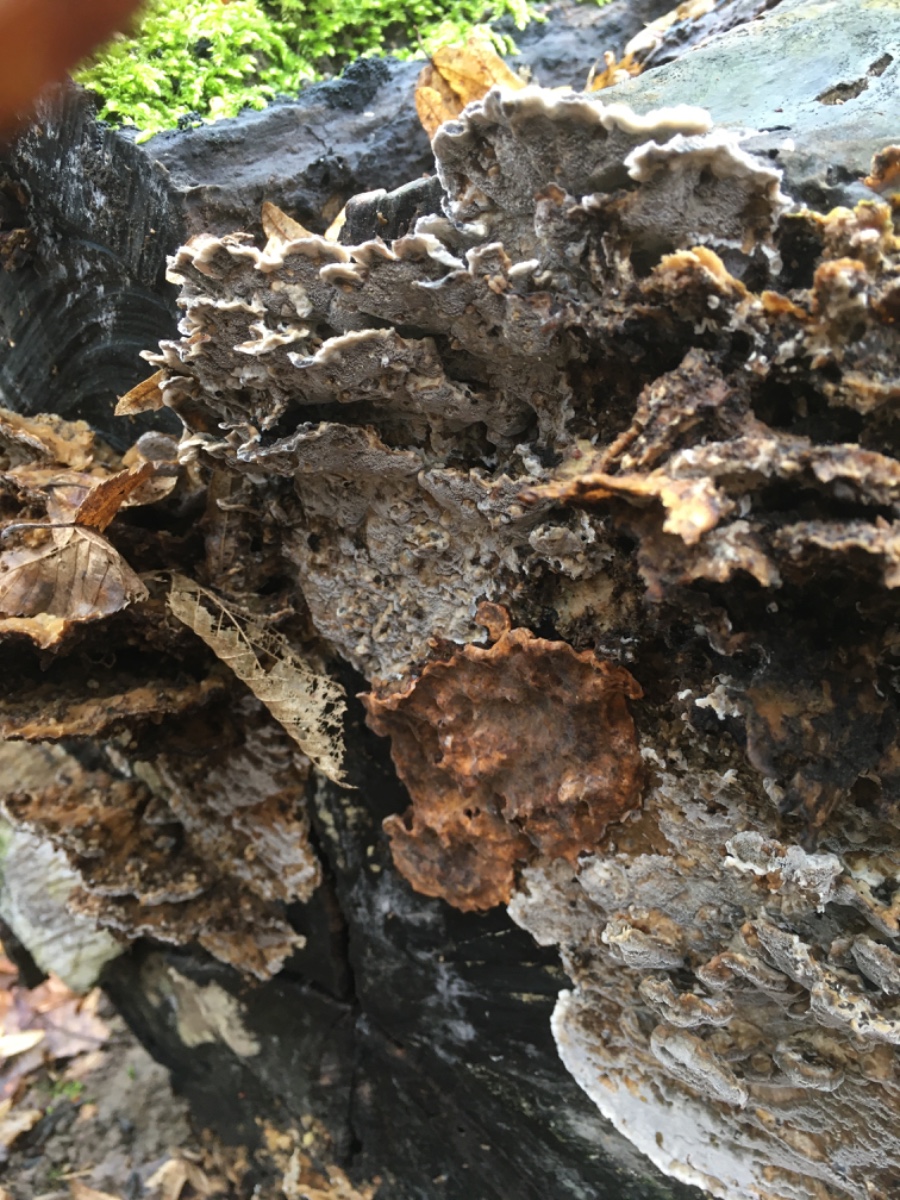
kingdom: Fungi
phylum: Basidiomycota
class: Agaricomycetes
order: Polyporales
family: Phanerochaetaceae
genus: Bjerkandera
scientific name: Bjerkandera adusta
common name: sveden sodporesvamp
